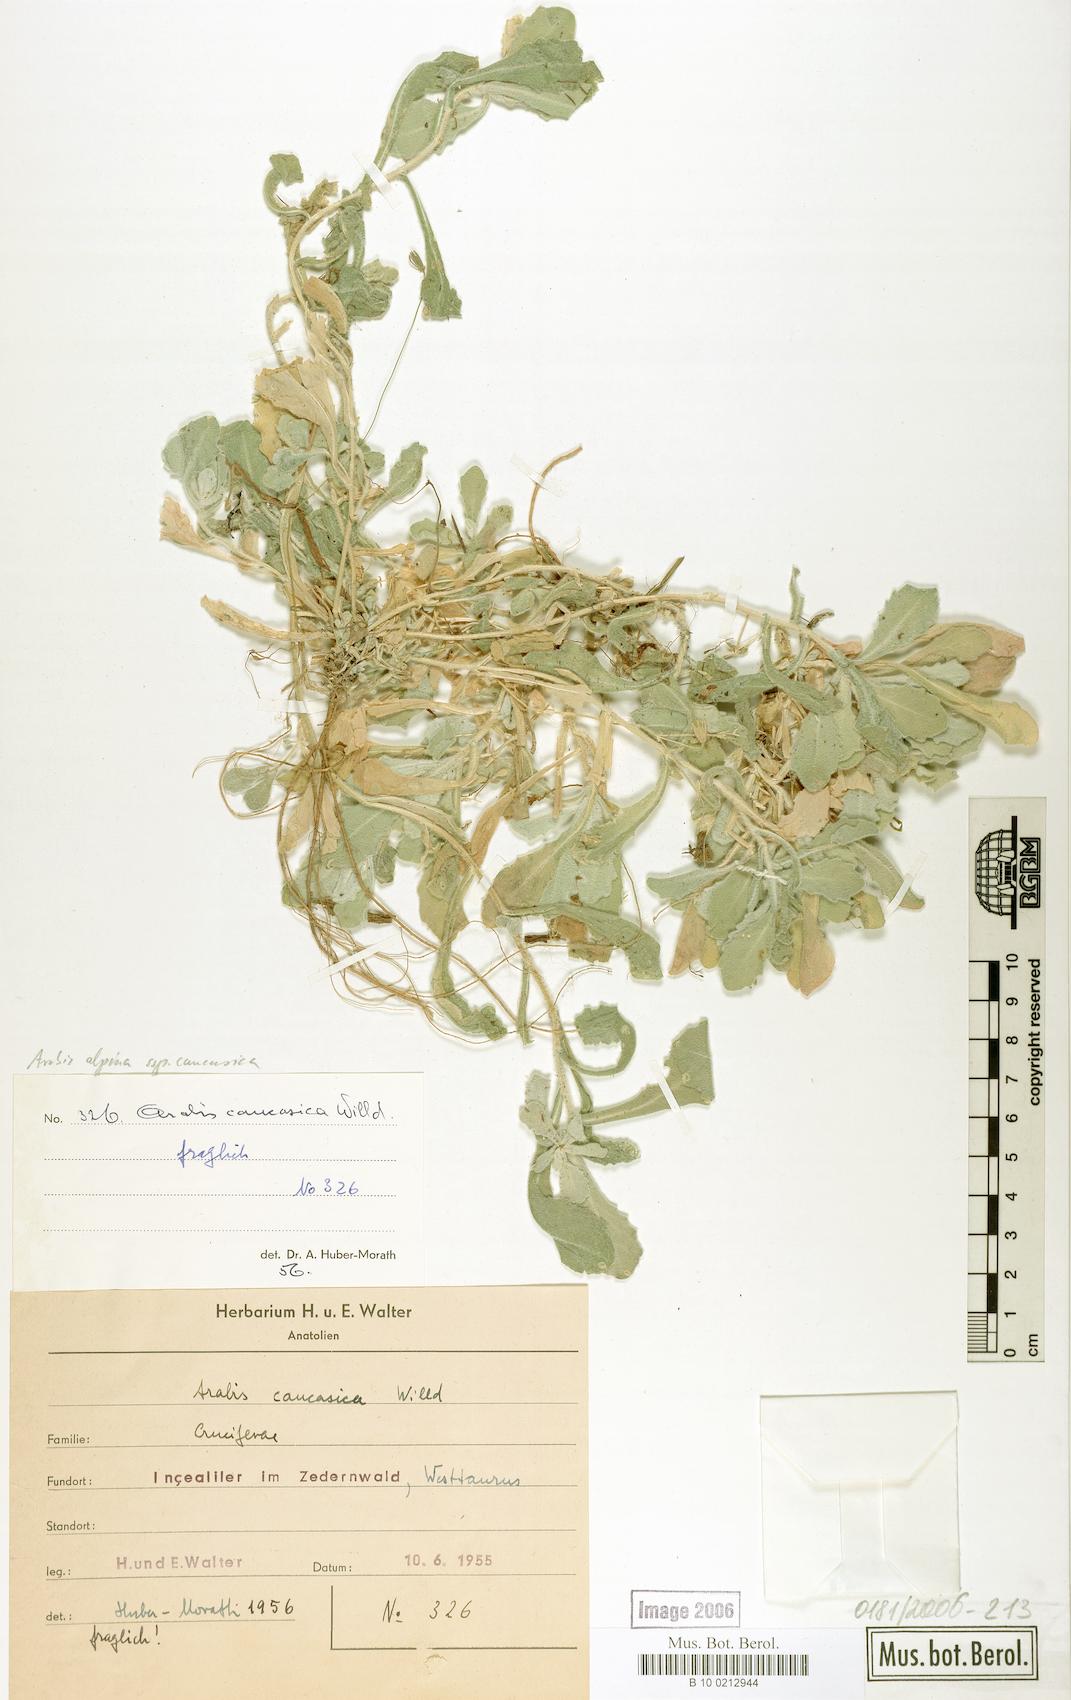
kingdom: Plantae
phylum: Tracheophyta
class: Magnoliopsida
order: Brassicales
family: Brassicaceae
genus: Arabis
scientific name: Arabis caucasica
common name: Gray rockcress
